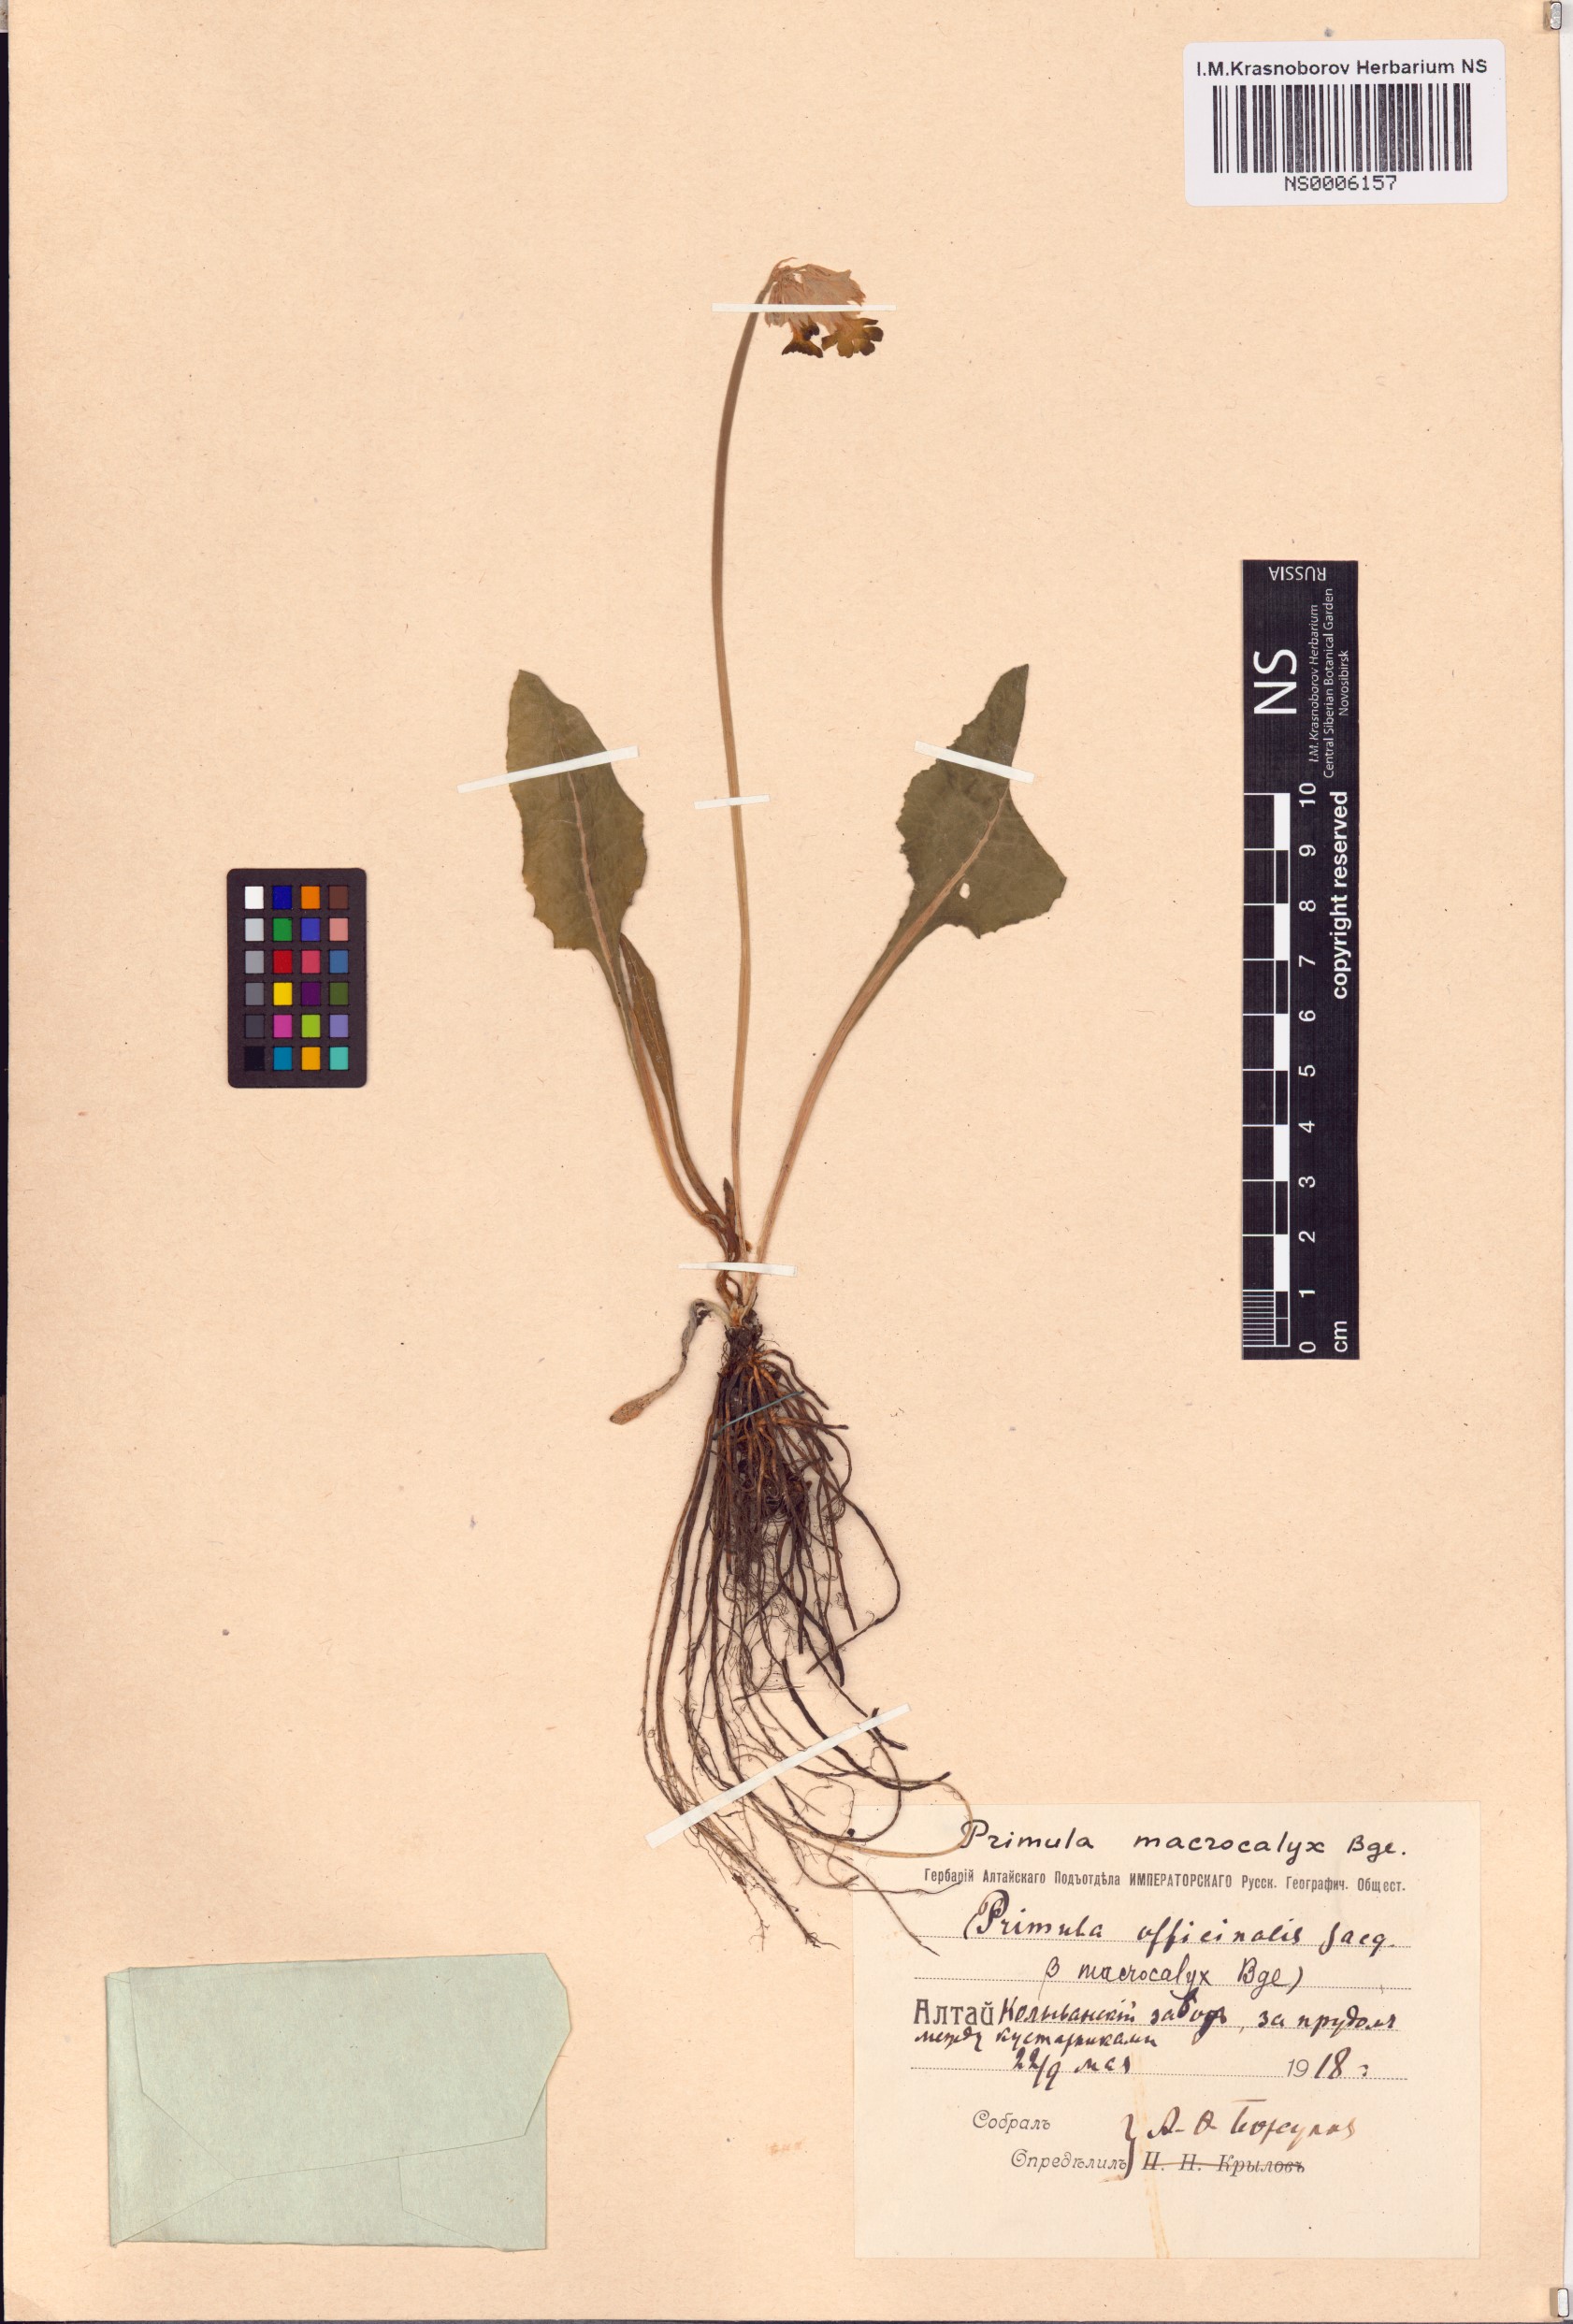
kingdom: Plantae
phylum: Tracheophyta
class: Magnoliopsida
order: Ericales
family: Primulaceae
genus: Primula
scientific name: Primula veris
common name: Cowslip
